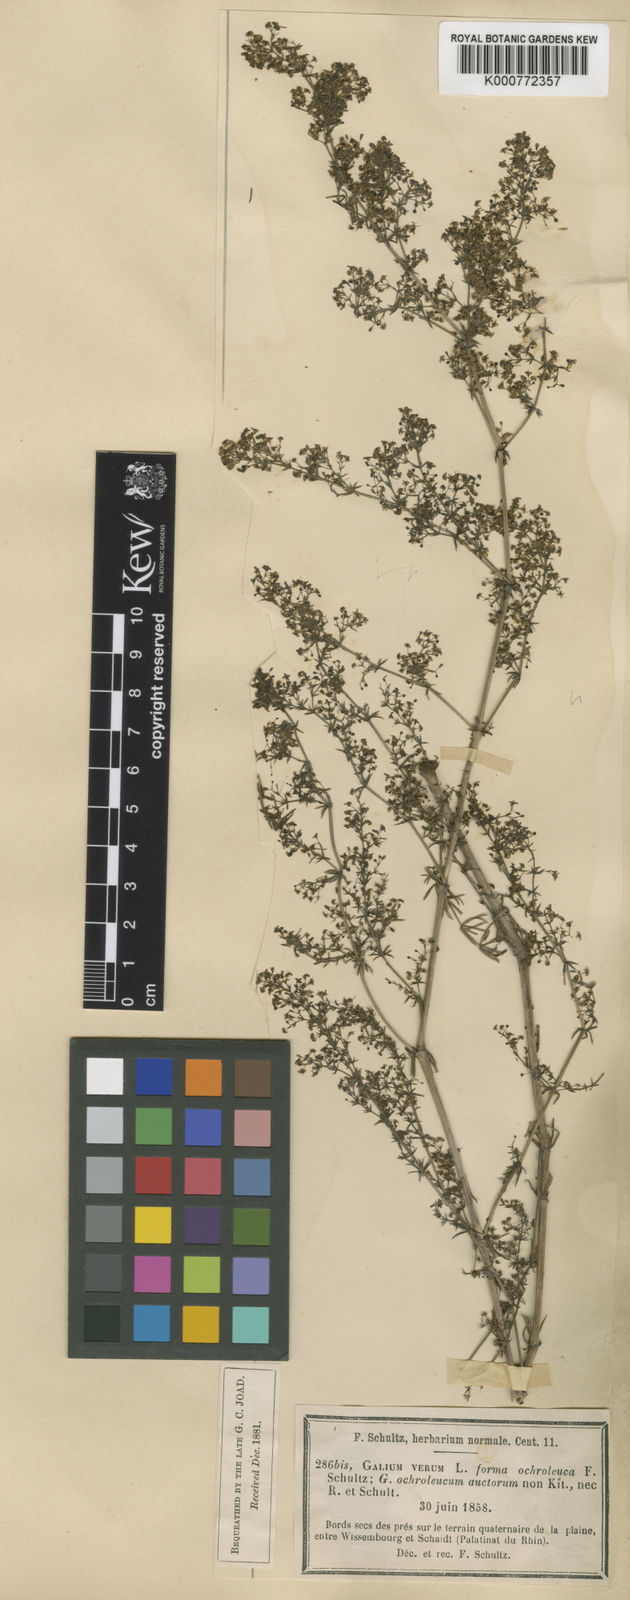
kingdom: Plantae
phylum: Tracheophyta
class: Magnoliopsida
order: Gentianales
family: Rubiaceae
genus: Galium
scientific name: Galium pomeranicum
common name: Bedstraw
